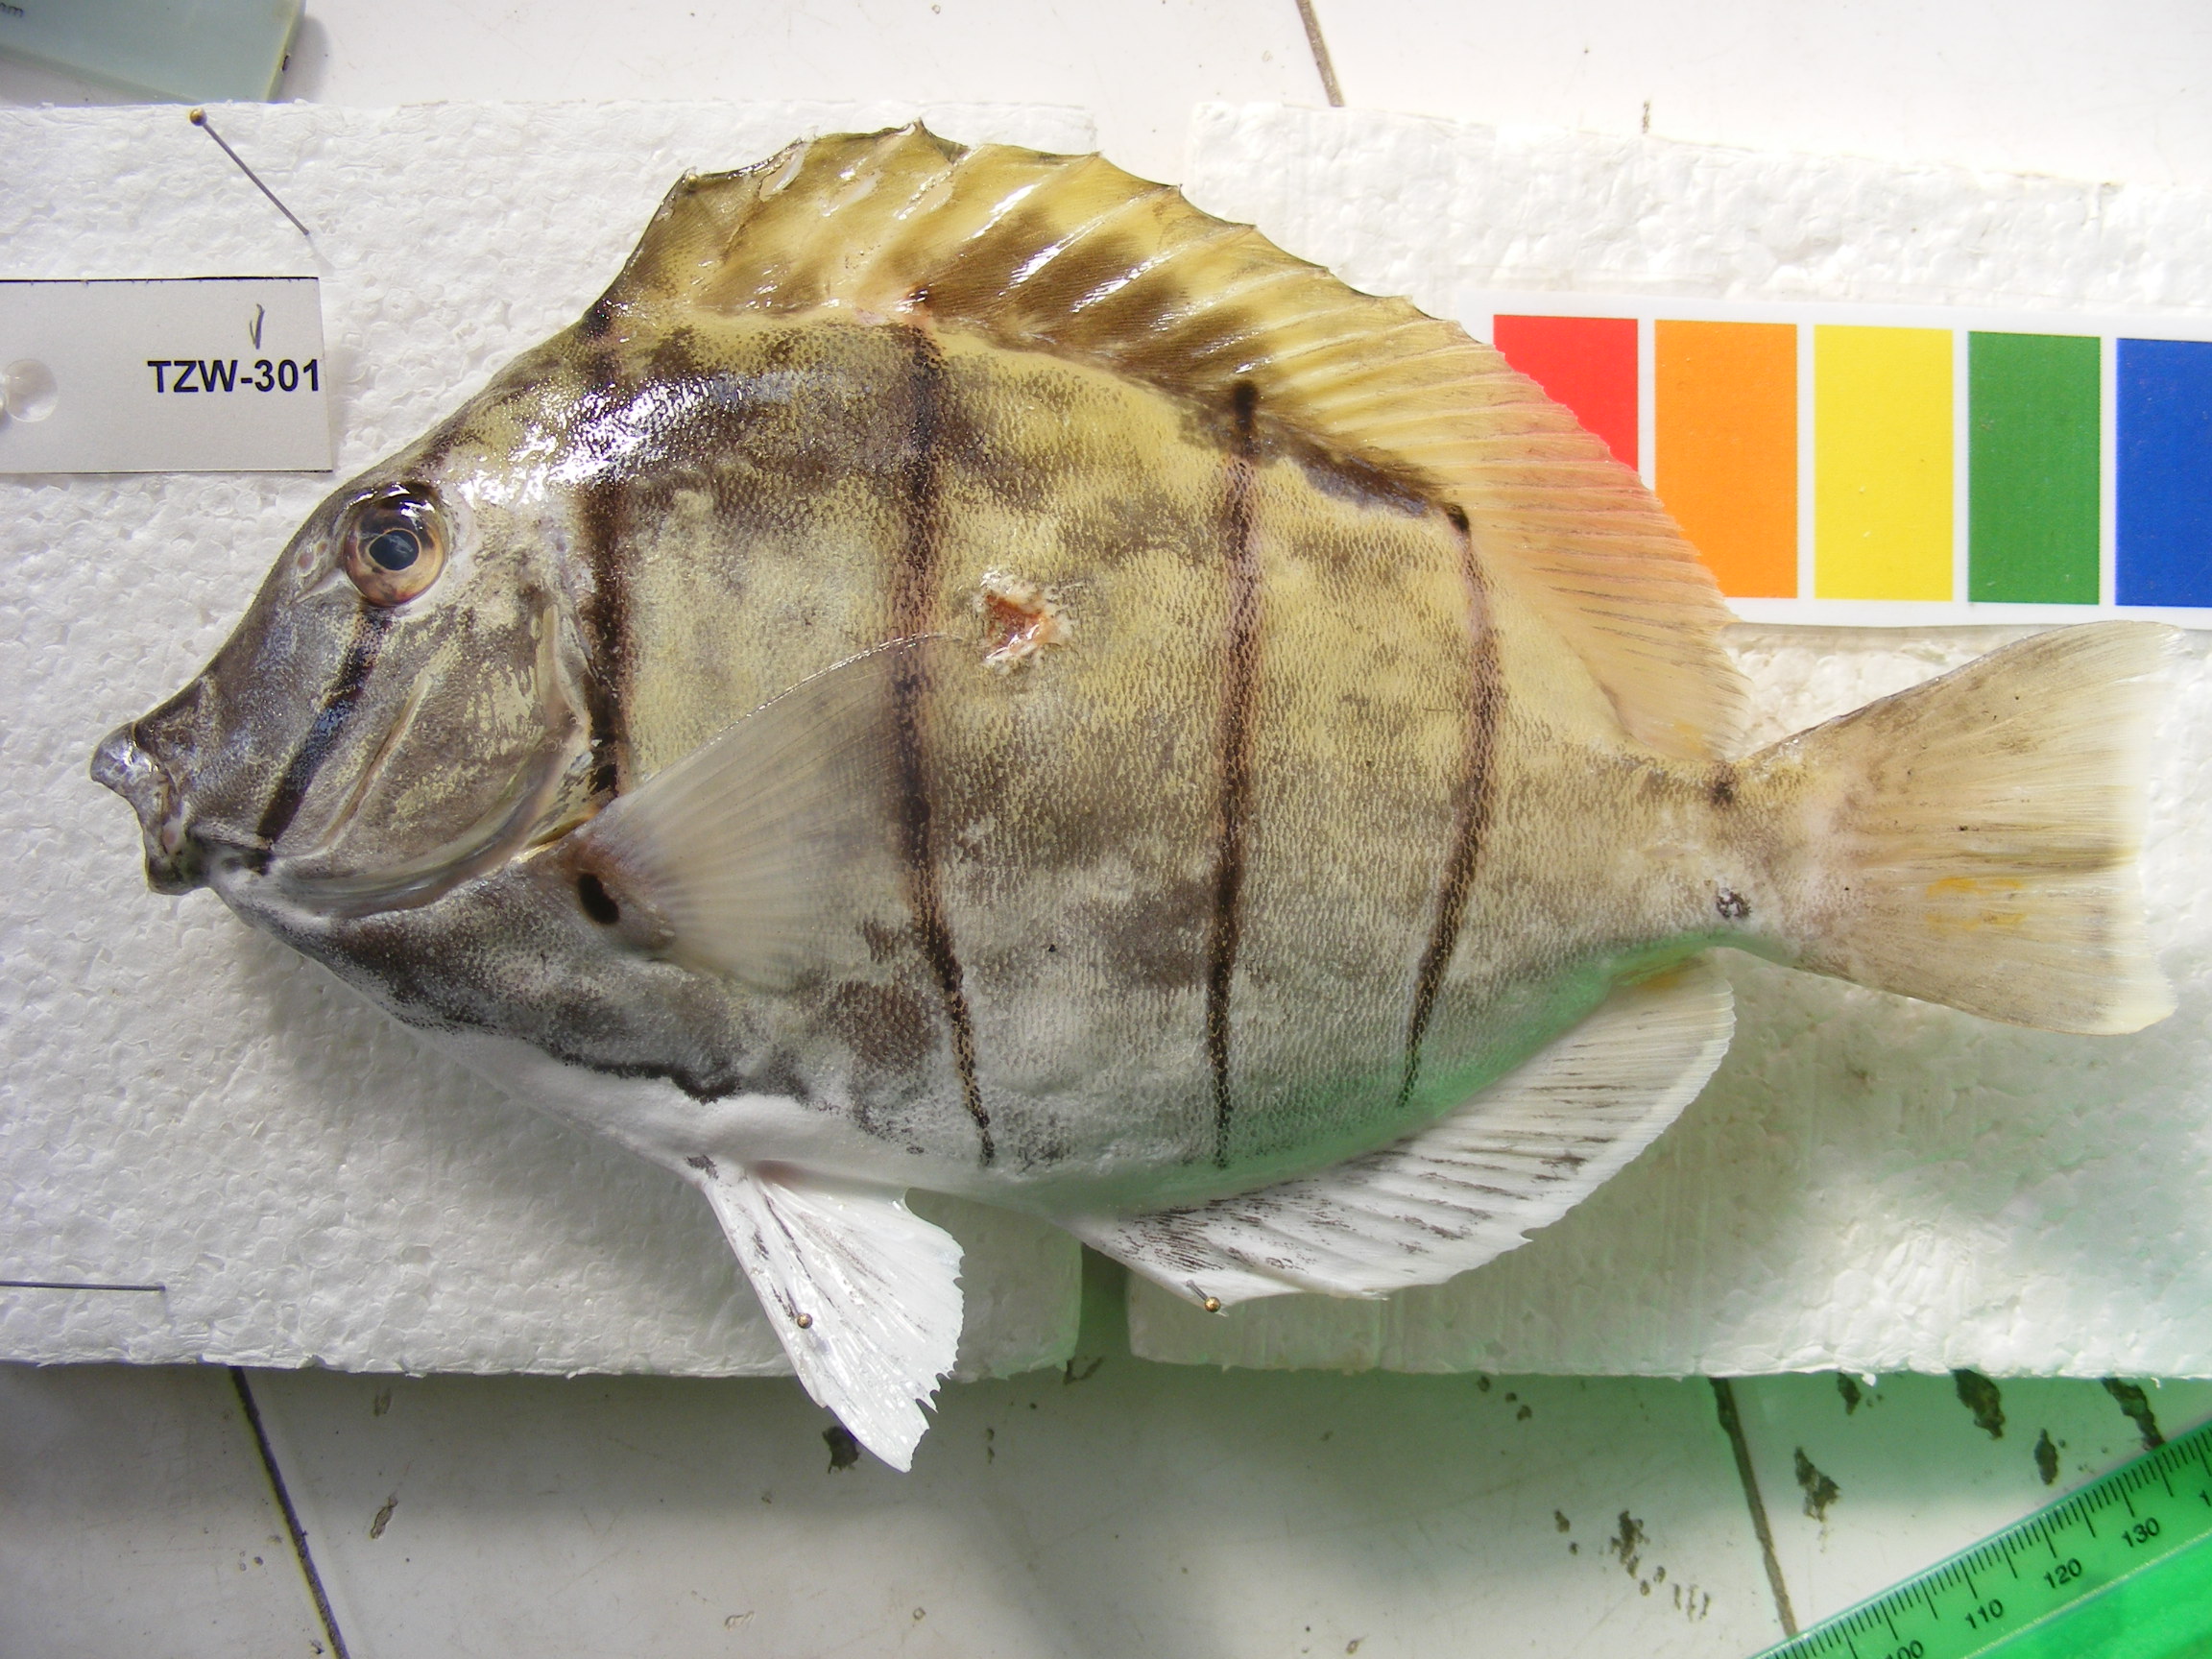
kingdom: Animalia
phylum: Chordata
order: Perciformes
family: Acanthuridae
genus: Acanthurus
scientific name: Acanthurus triostegus
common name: Convict surgeonfish
